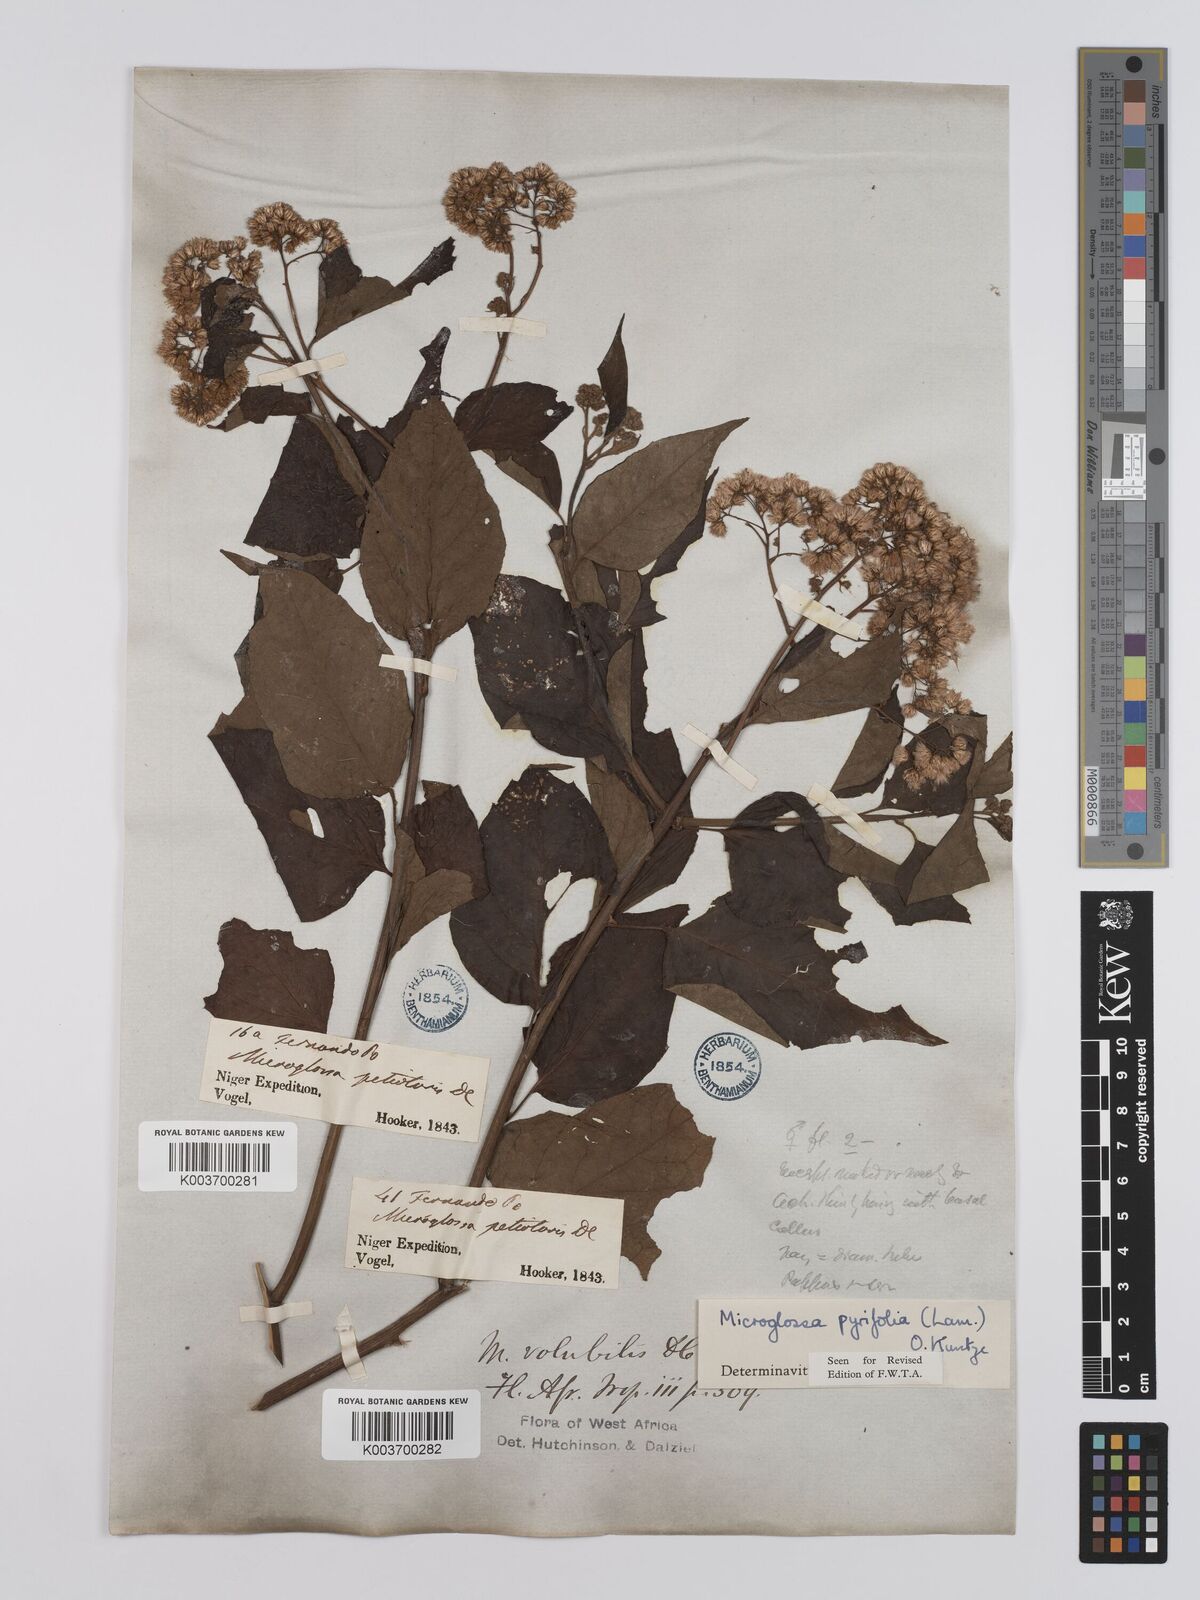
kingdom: Plantae
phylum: Tracheophyta
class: Magnoliopsida
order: Asterales
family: Asteraceae
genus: Microglossa
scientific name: Microglossa pyrifolia
